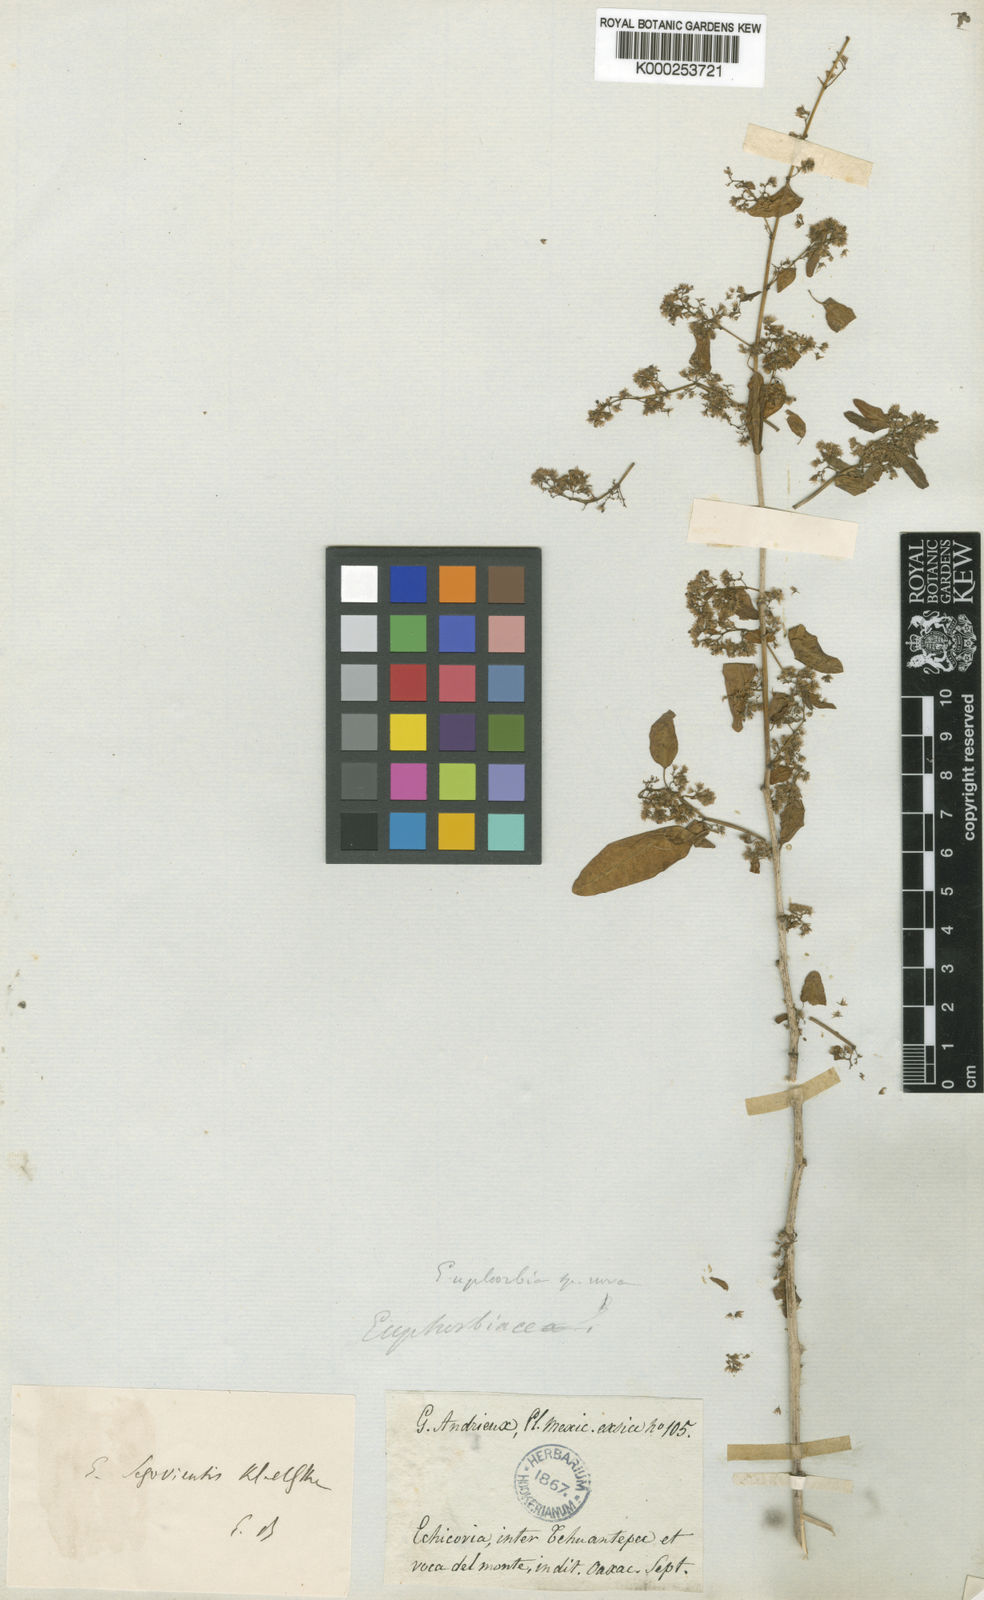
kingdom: Plantae
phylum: Tracheophyta
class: Magnoliopsida
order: Malpighiales
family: Euphorbiaceae
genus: Euphorbia
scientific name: Euphorbia segoviensis
